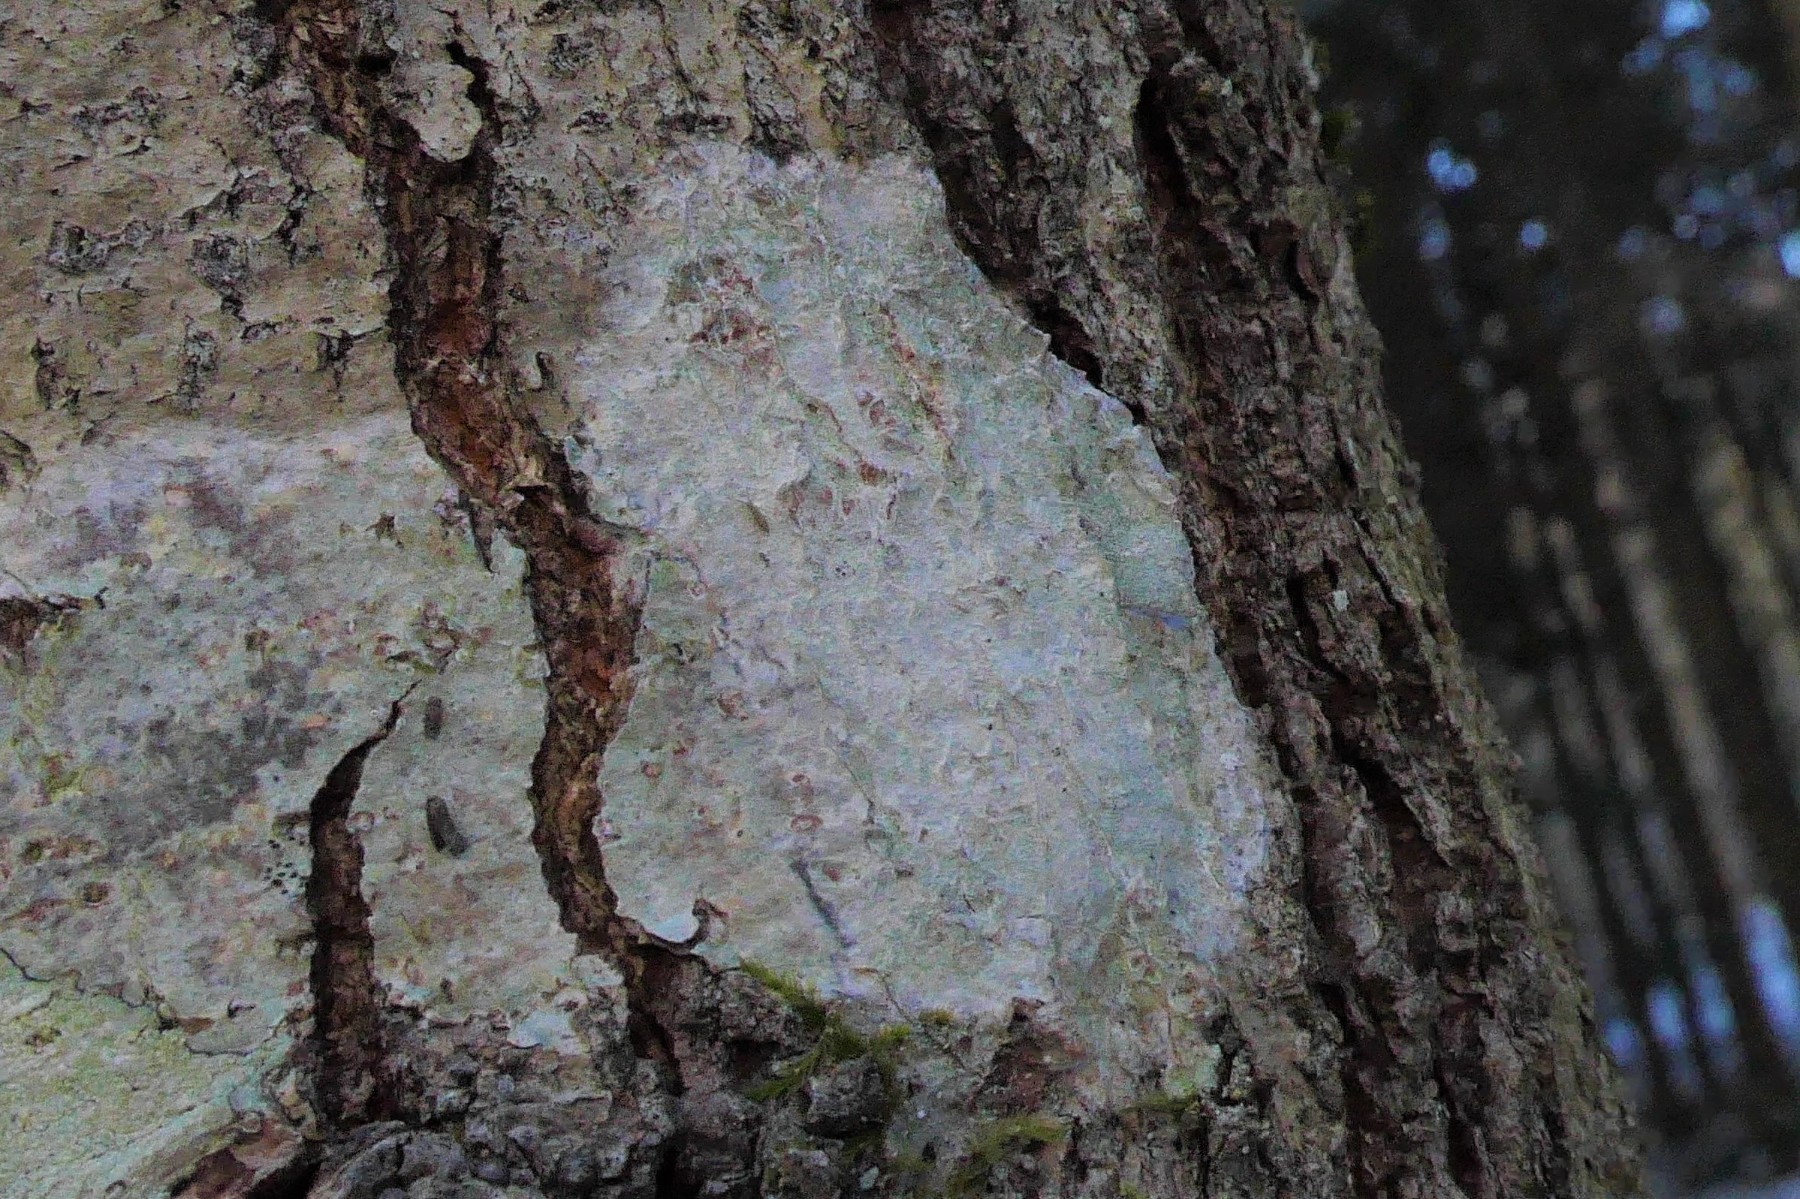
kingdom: Fungi
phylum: Ascomycota
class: Lecanoromycetes
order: Ostropales
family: Phlyctidaceae
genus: Phlyctis
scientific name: Phlyctis argena
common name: almindelig sølvlav
